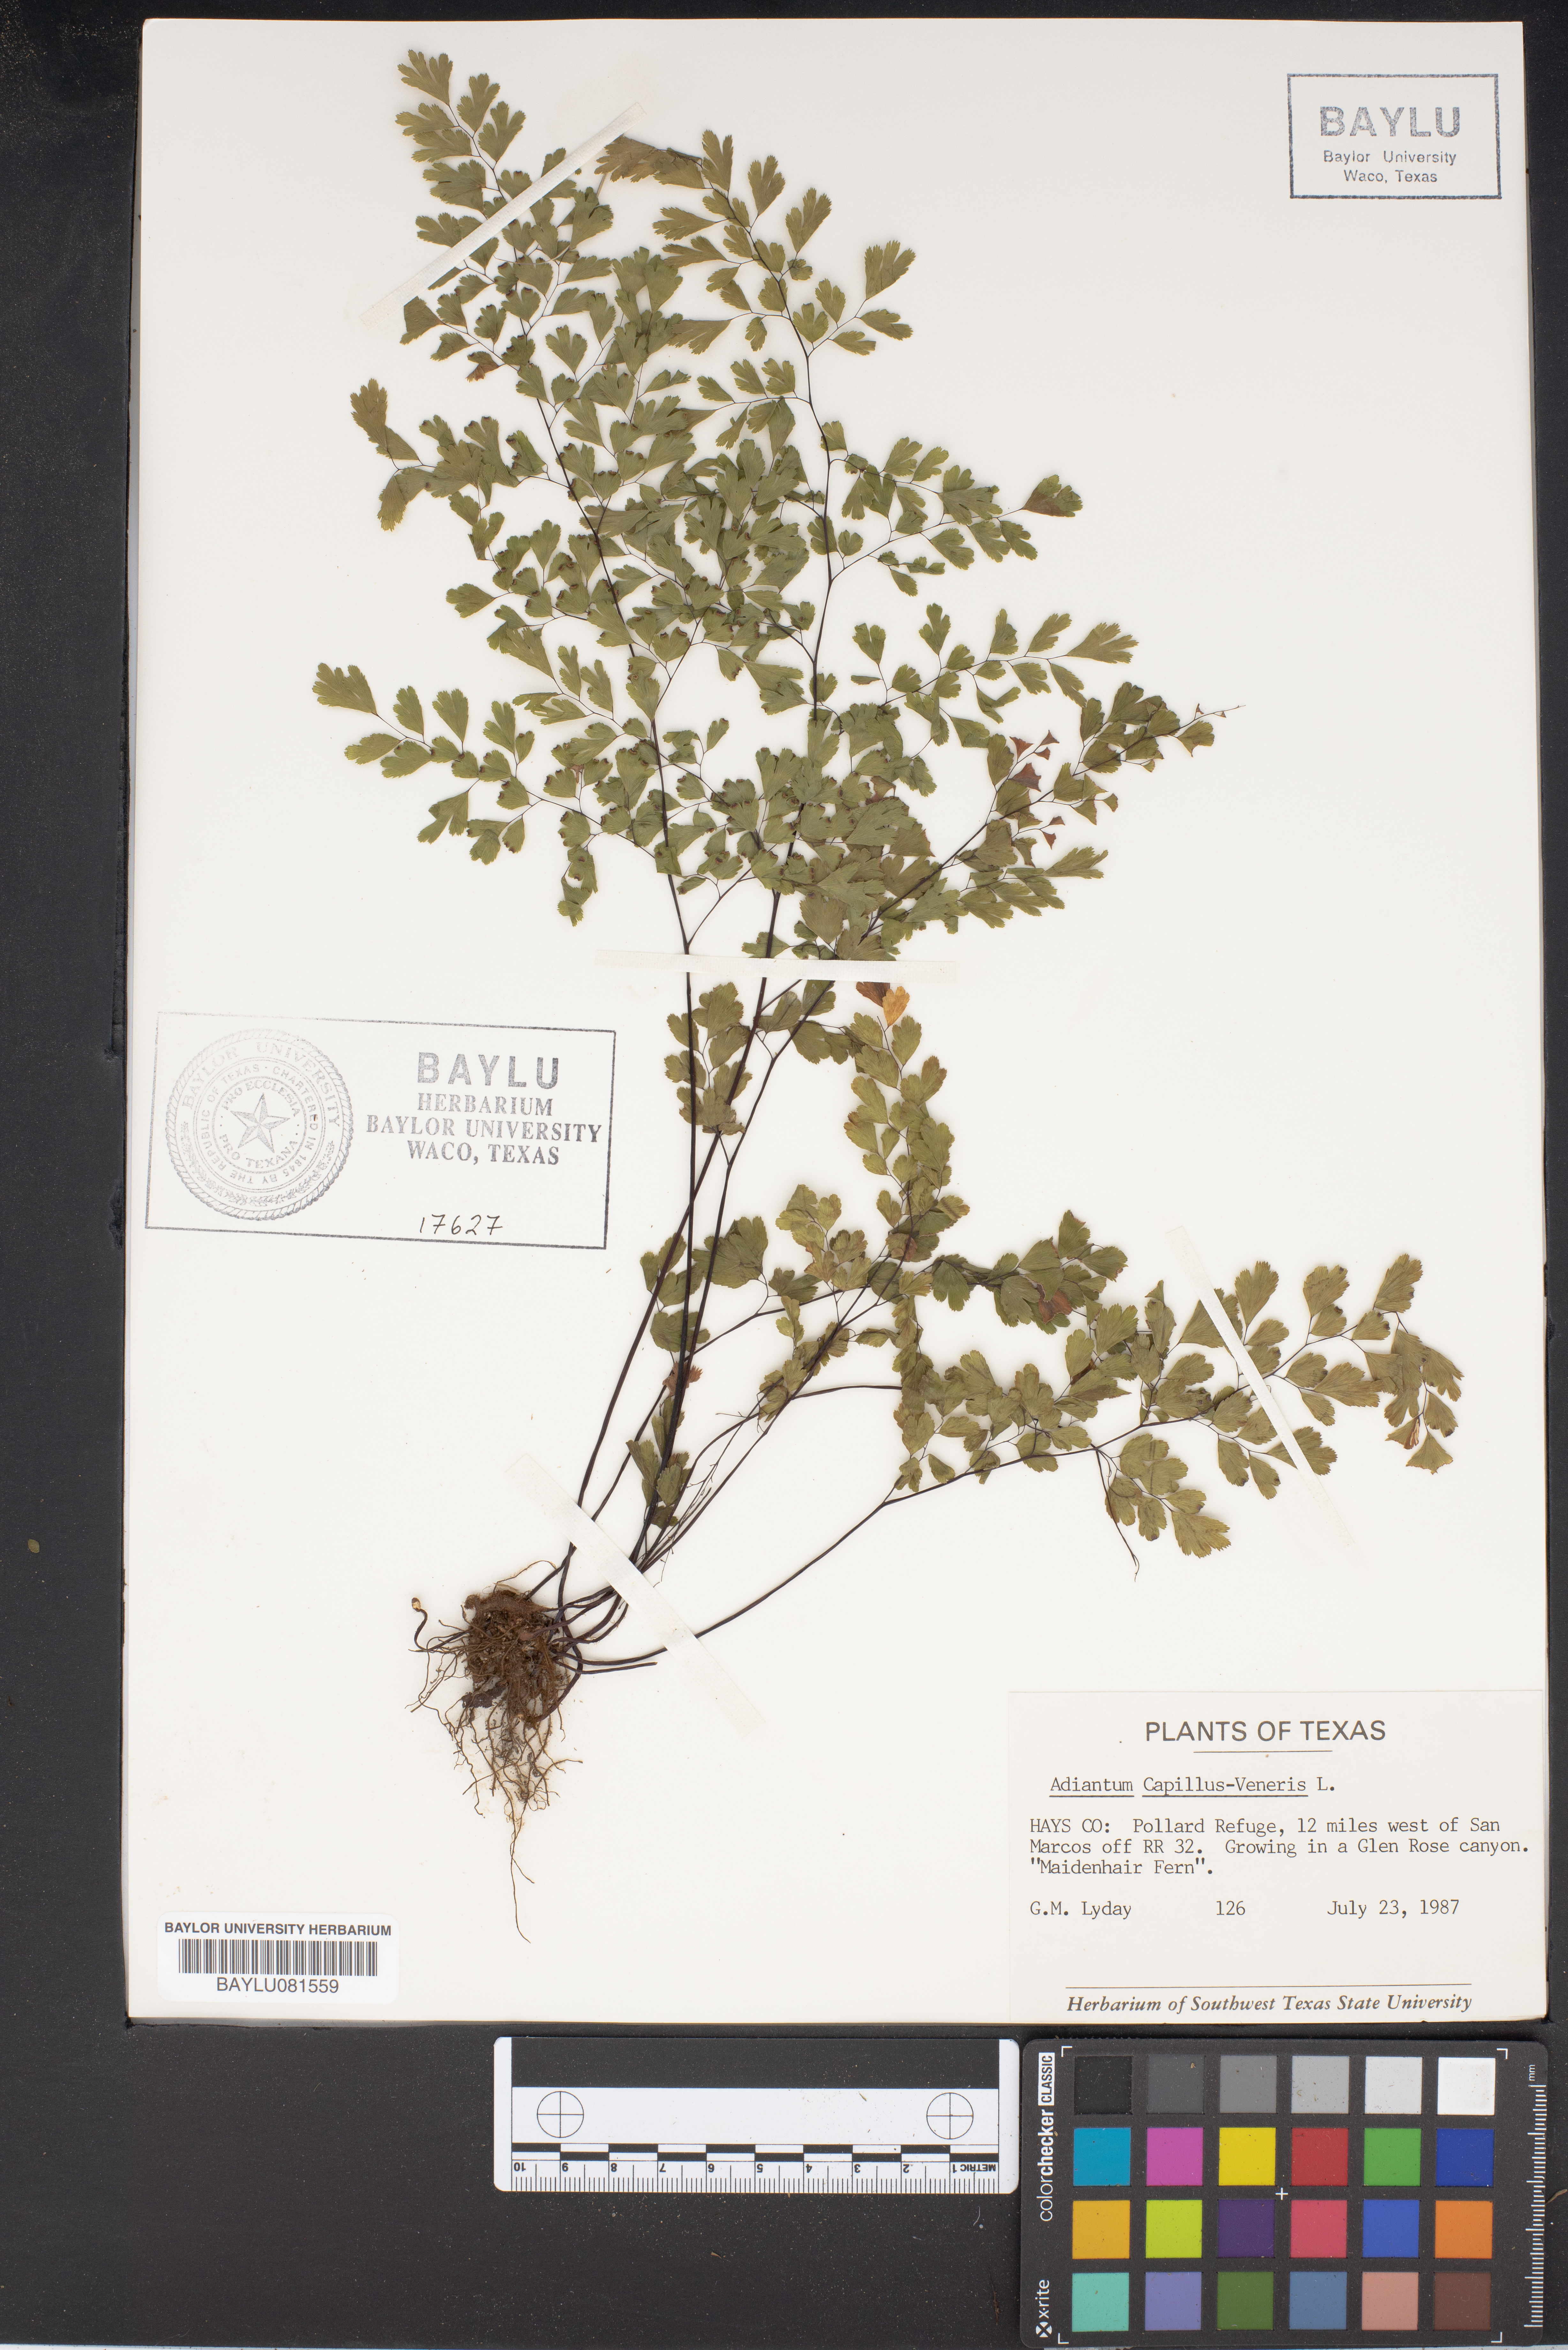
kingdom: Plantae
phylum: Tracheophyta
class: Polypodiopsida
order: Polypodiales
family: Pteridaceae
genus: Adiantum
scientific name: Adiantum capillus-veneris
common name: Maidenhair fern
